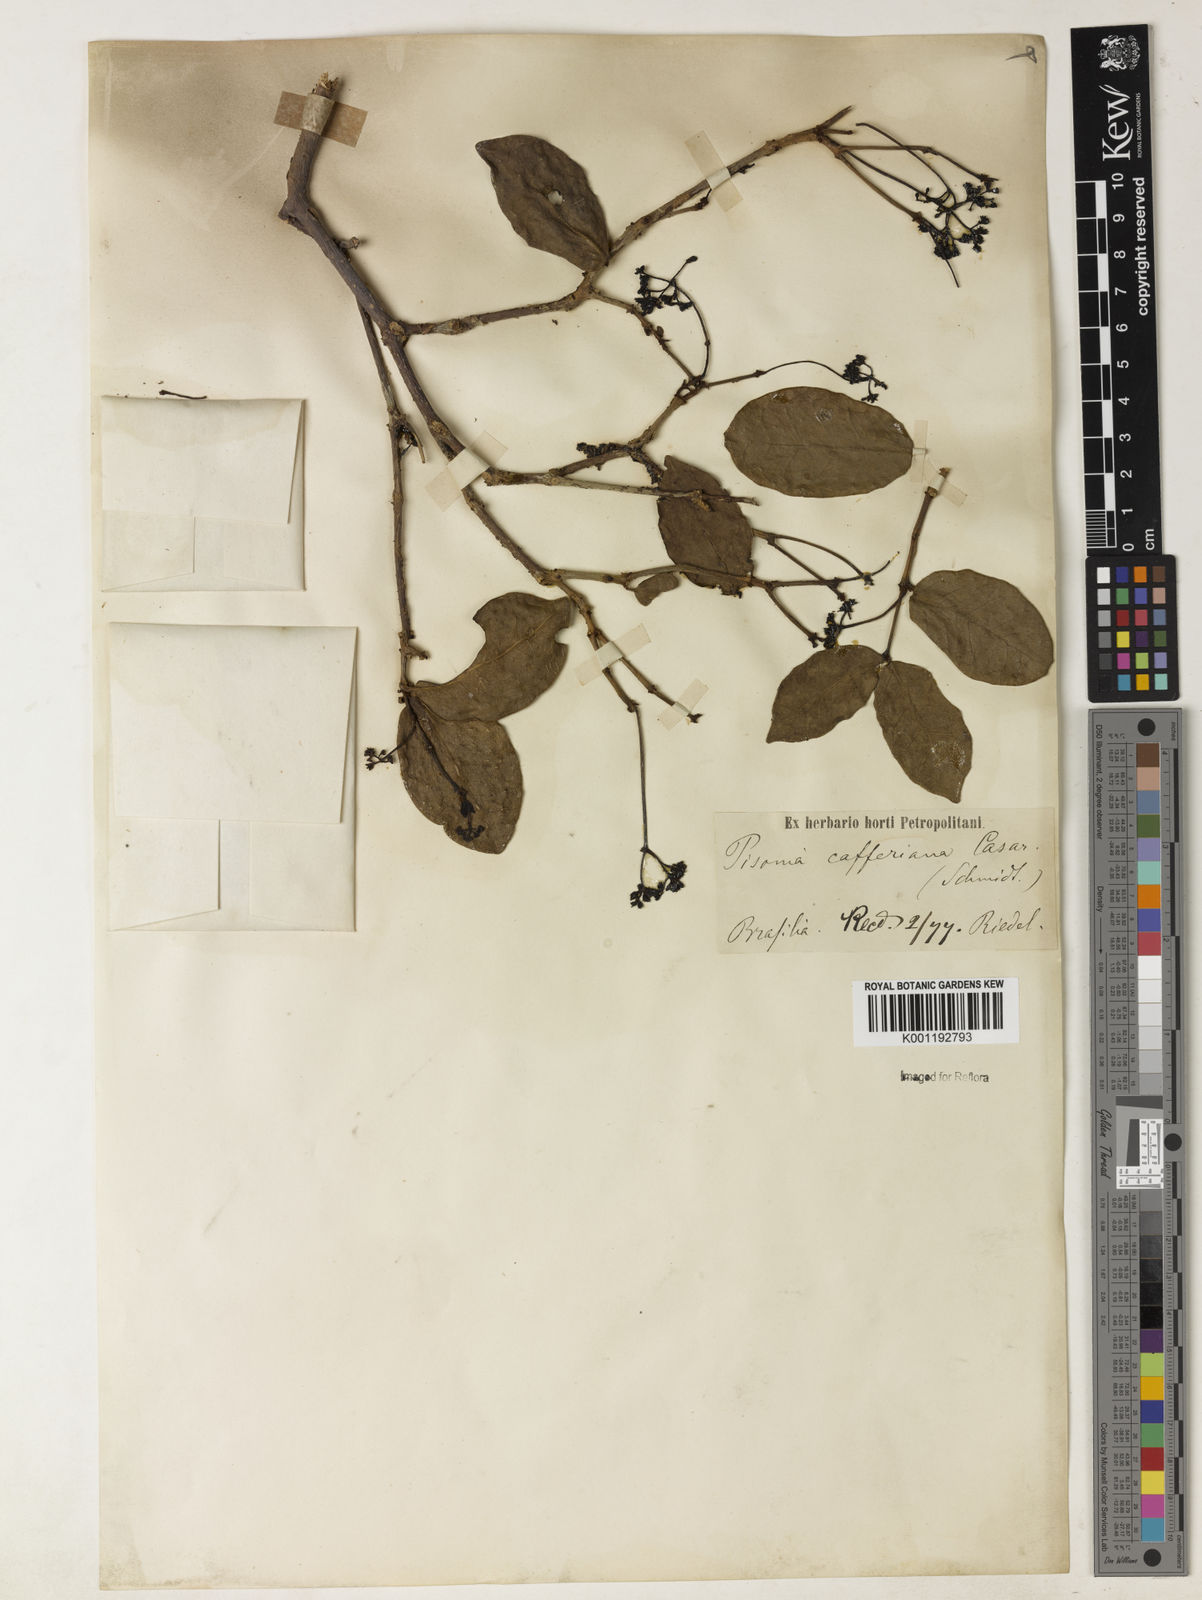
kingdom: Plantae
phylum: Tracheophyta
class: Magnoliopsida
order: Caryophyllales
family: Nyctaginaceae
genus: Guapira
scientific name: Guapira opposita
